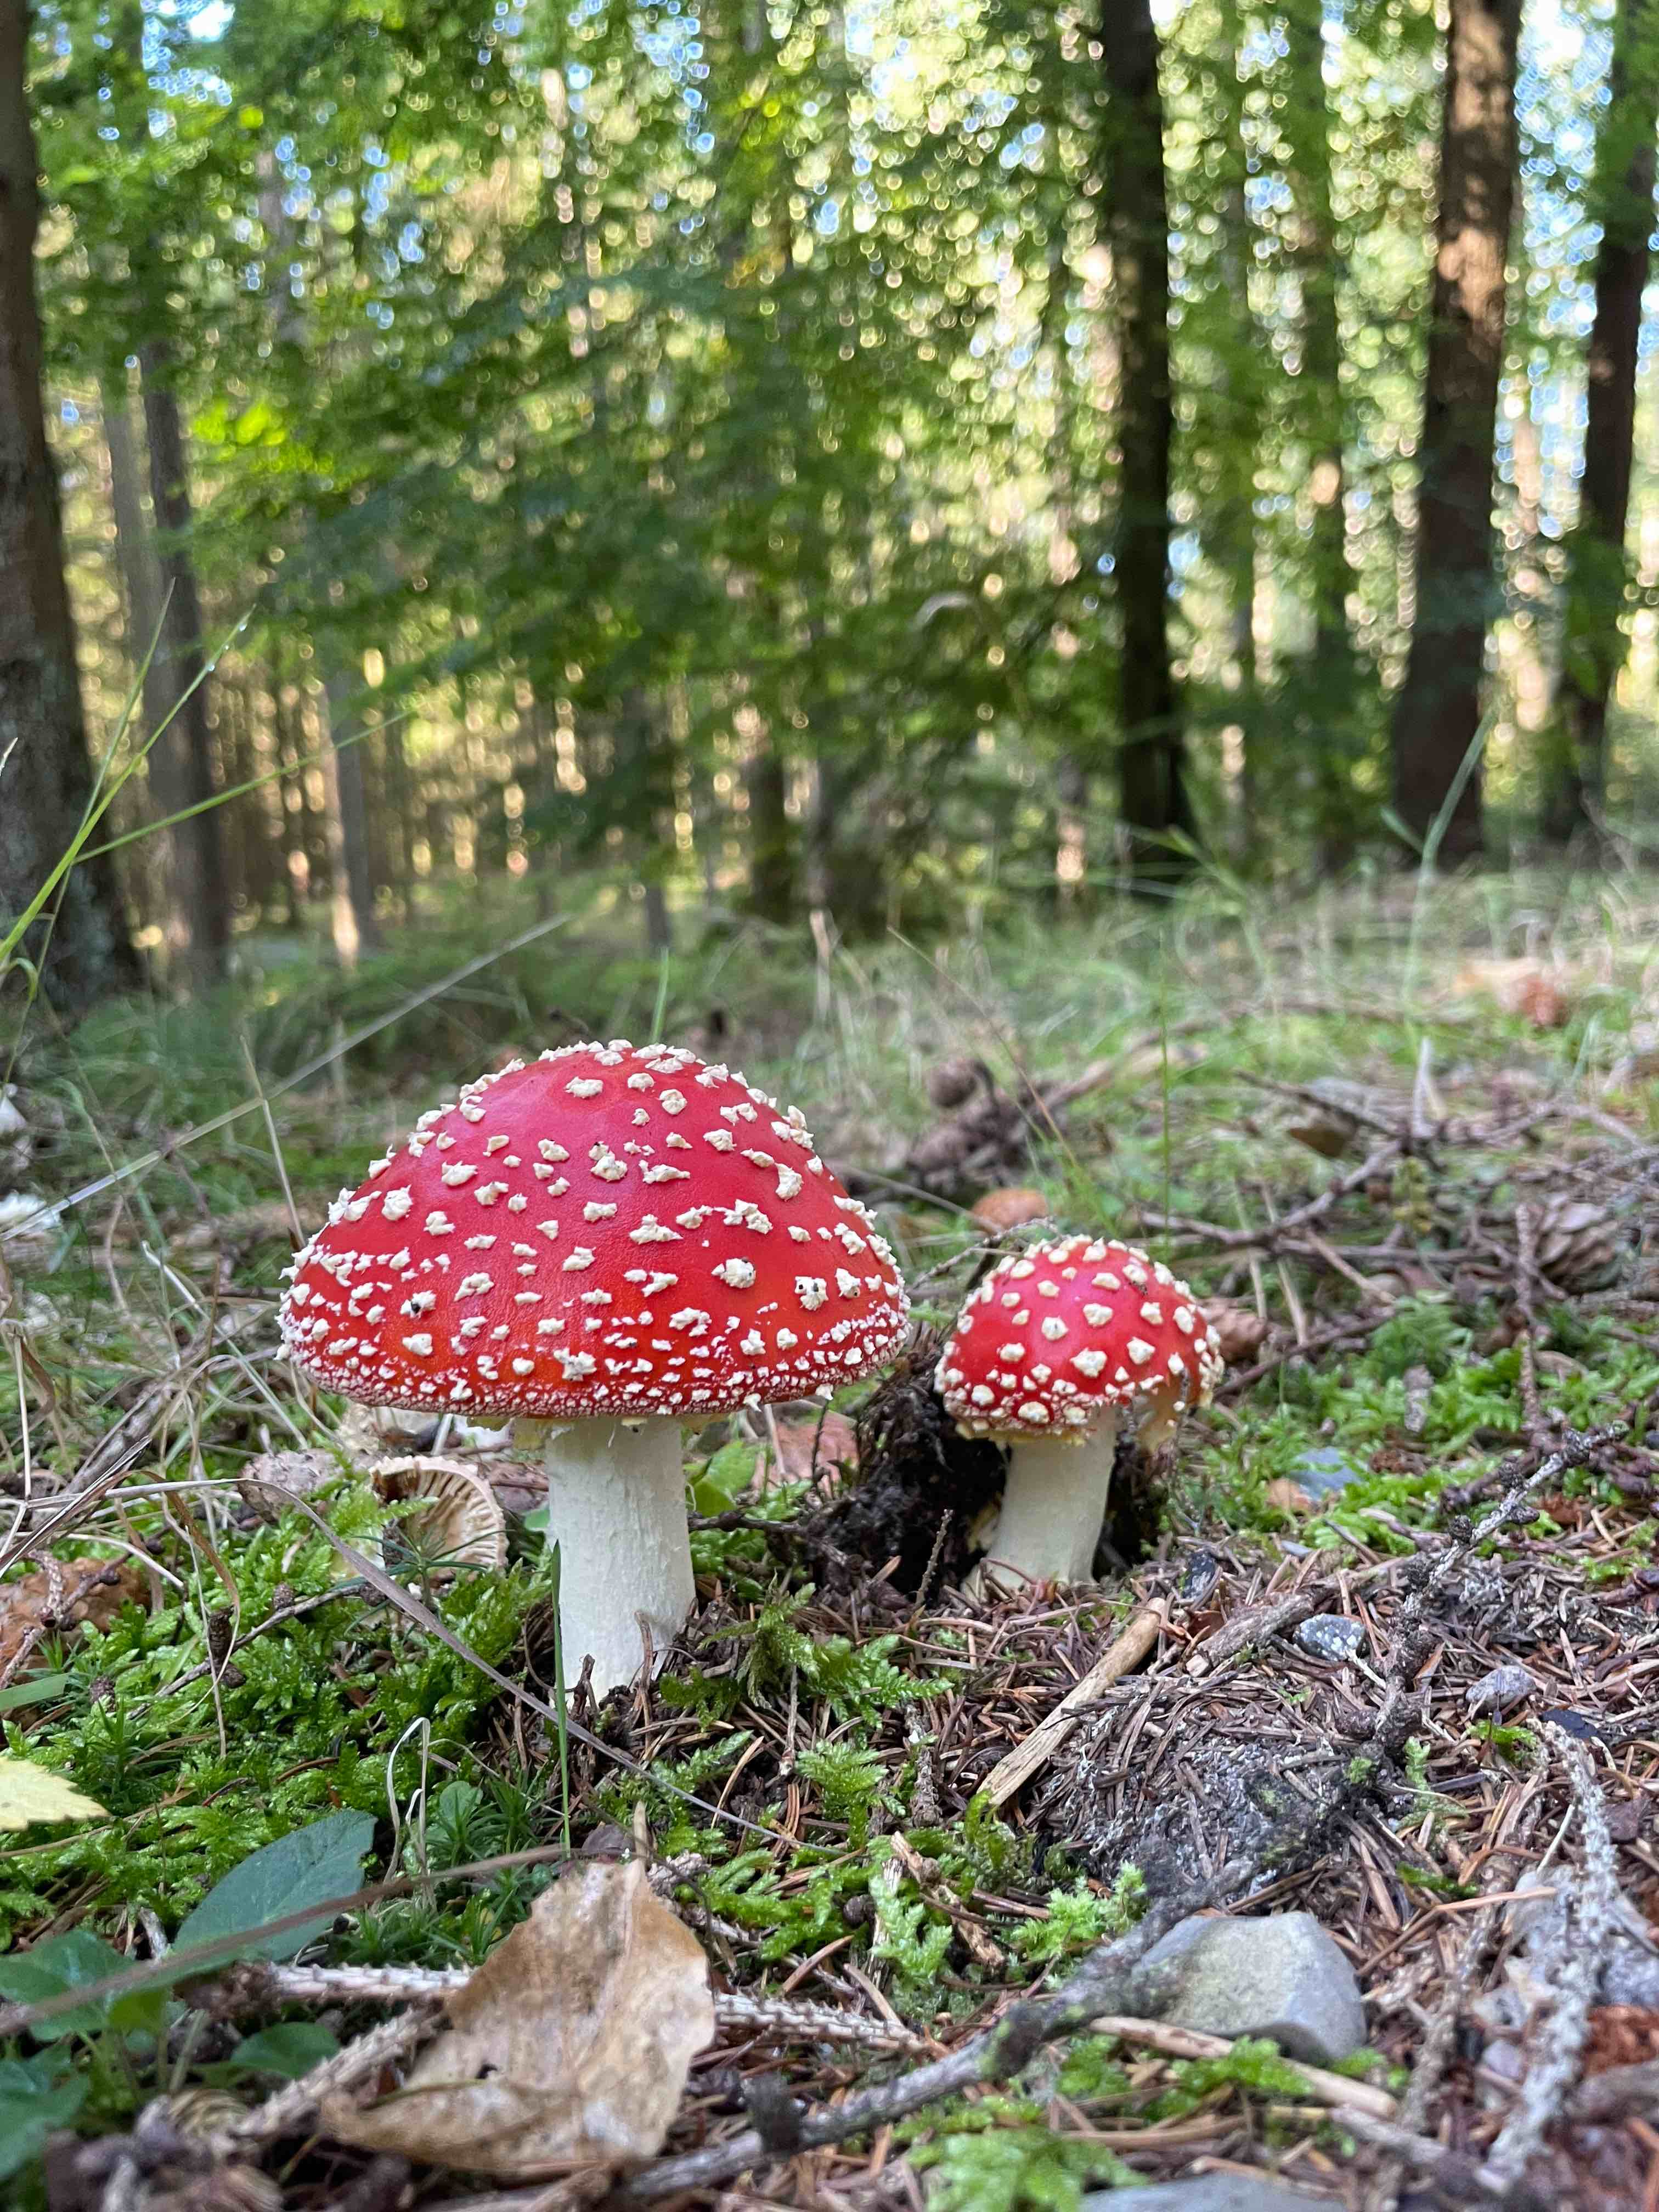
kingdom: Fungi
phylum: Basidiomycota
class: Agaricomycetes
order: Agaricales
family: Amanitaceae
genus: Amanita
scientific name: Amanita muscaria
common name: rød fluesvamp
